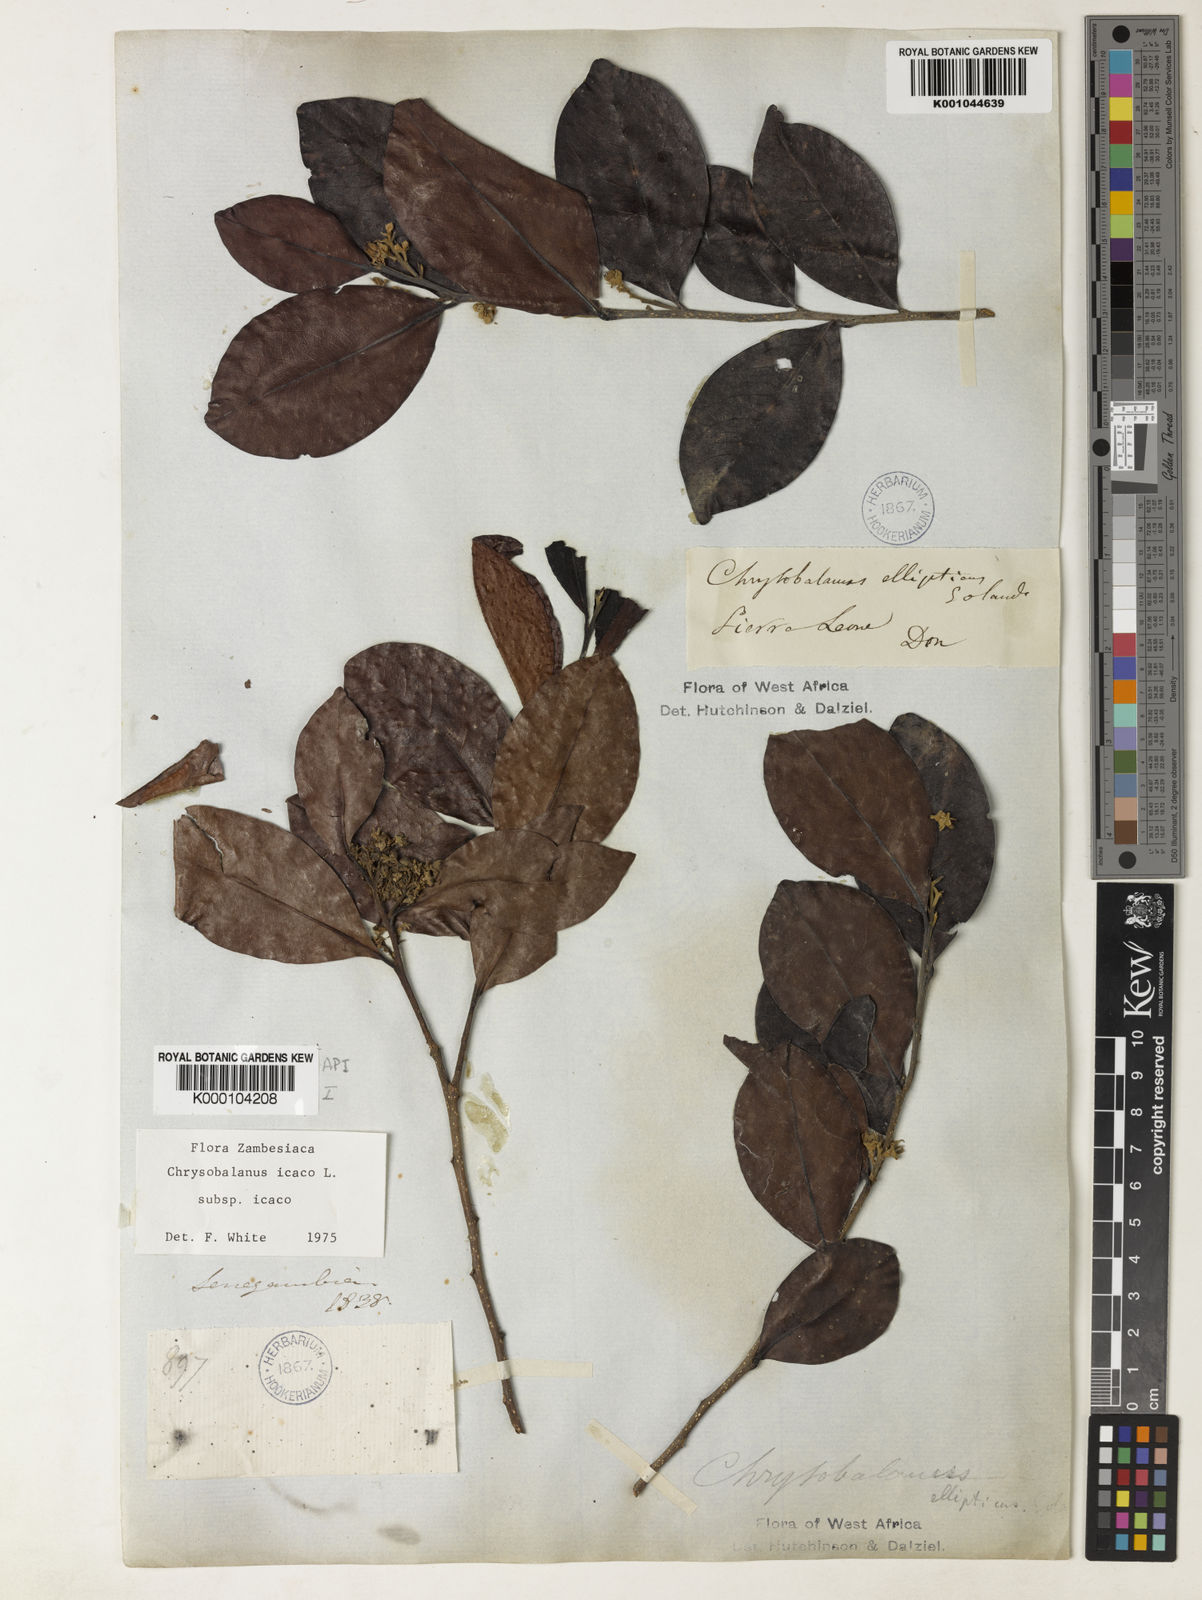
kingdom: Plantae
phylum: Tracheophyta
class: Magnoliopsida
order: Malpighiales
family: Chrysobalanaceae
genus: Chrysobalanus
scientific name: Chrysobalanus icaco
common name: Coco plum
